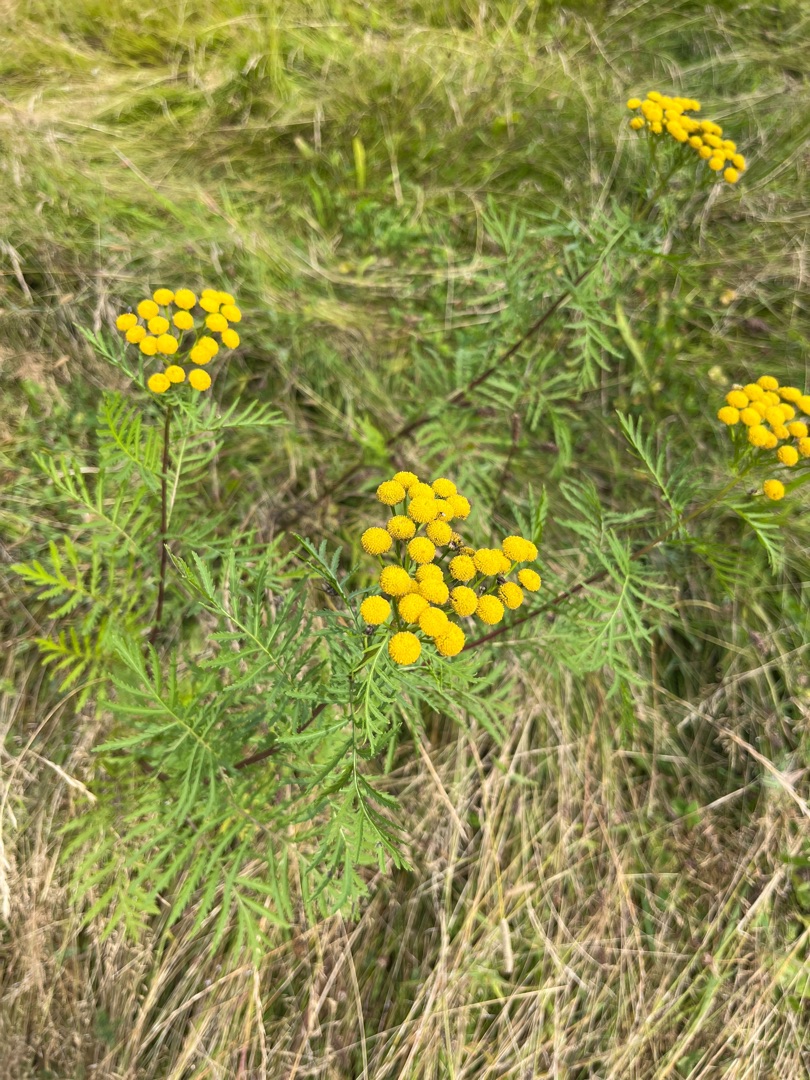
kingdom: Plantae
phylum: Tracheophyta
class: Magnoliopsida
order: Asterales
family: Asteraceae
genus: Tanacetum
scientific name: Tanacetum vulgare
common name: Rejnfan
